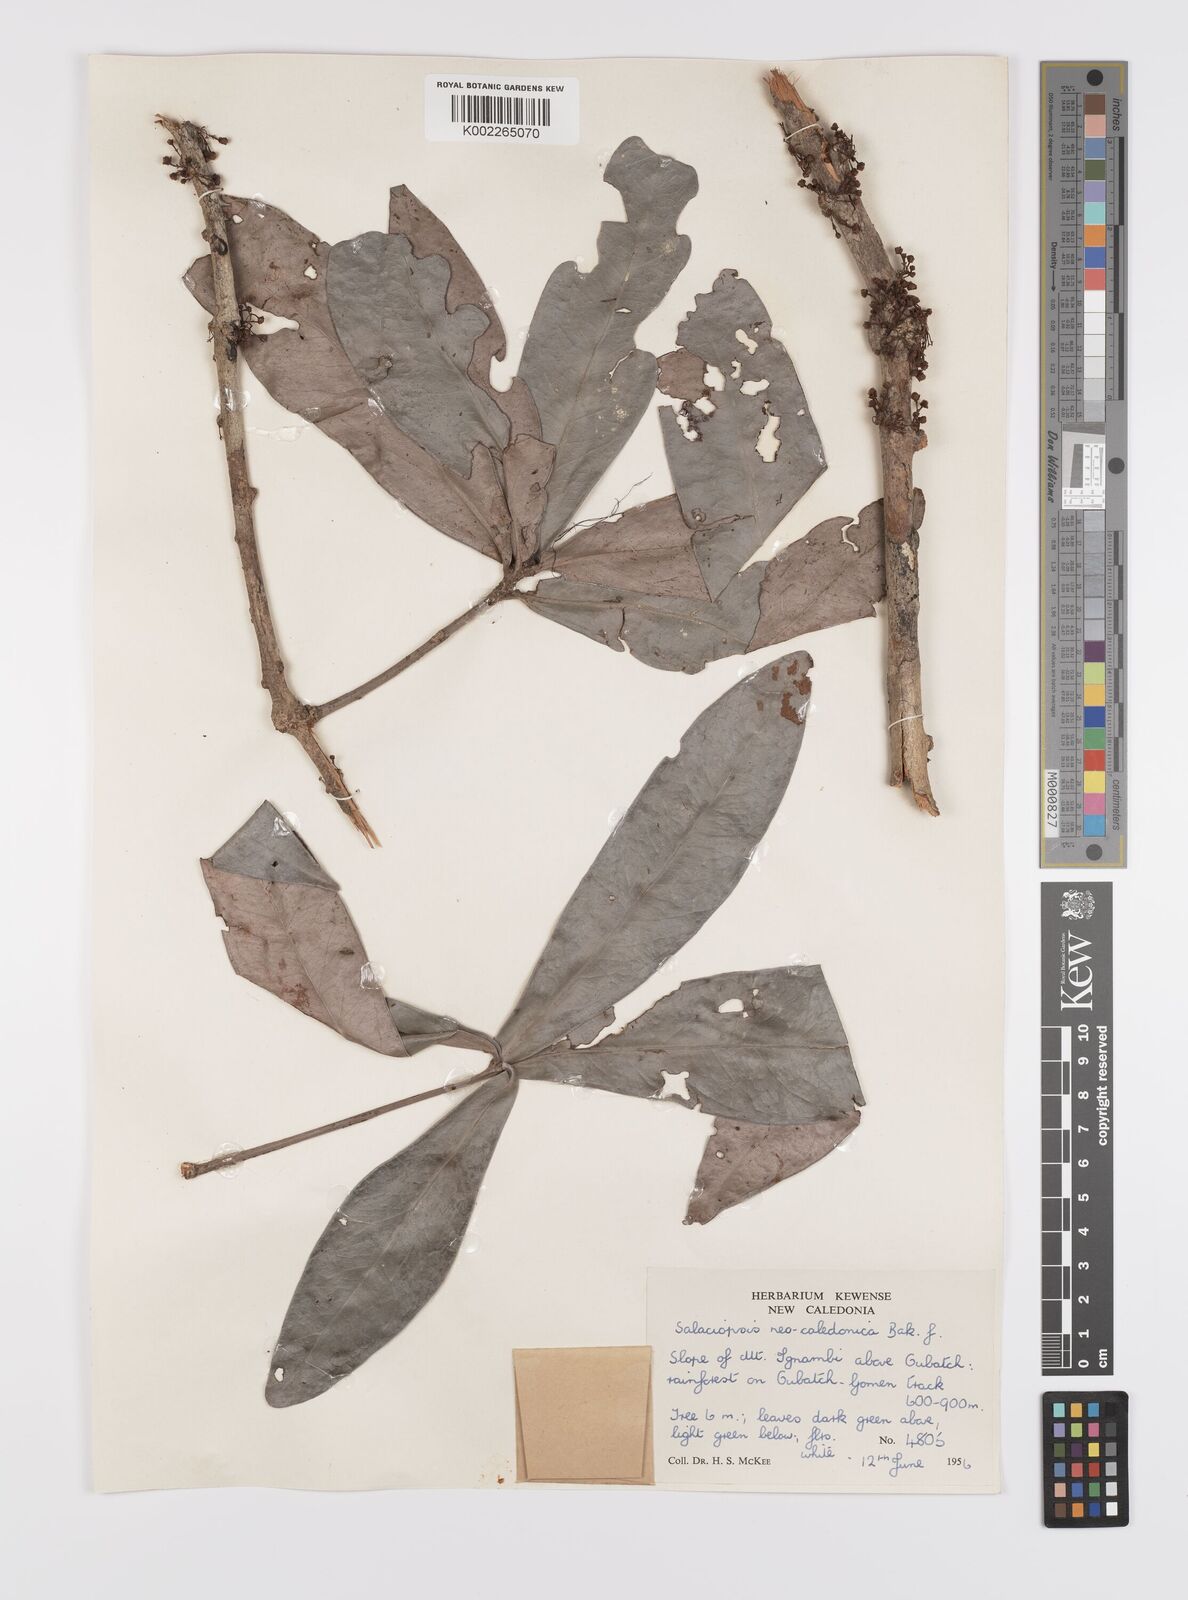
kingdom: Plantae
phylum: Tracheophyta
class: Magnoliopsida
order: Celastrales
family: Celastraceae
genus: Salaciopsis
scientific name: Salaciopsis neocaledonica
